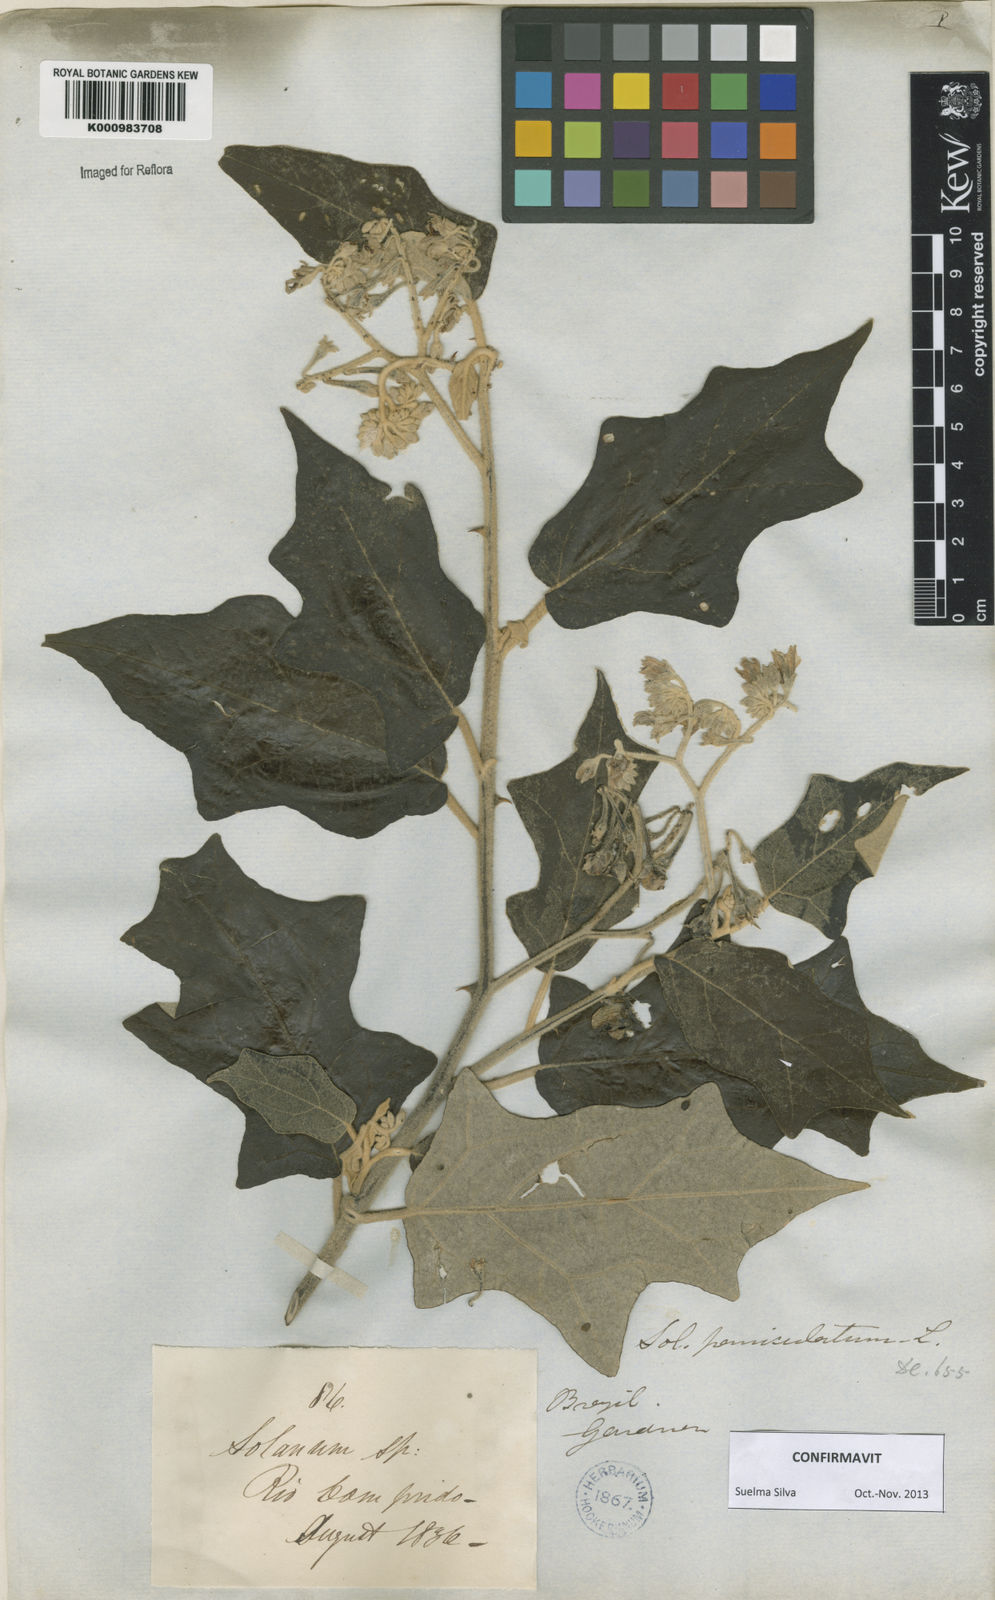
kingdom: Plantae
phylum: Tracheophyta
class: Magnoliopsida
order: Solanales
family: Solanaceae
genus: Solanum
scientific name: Solanum paniculatum
